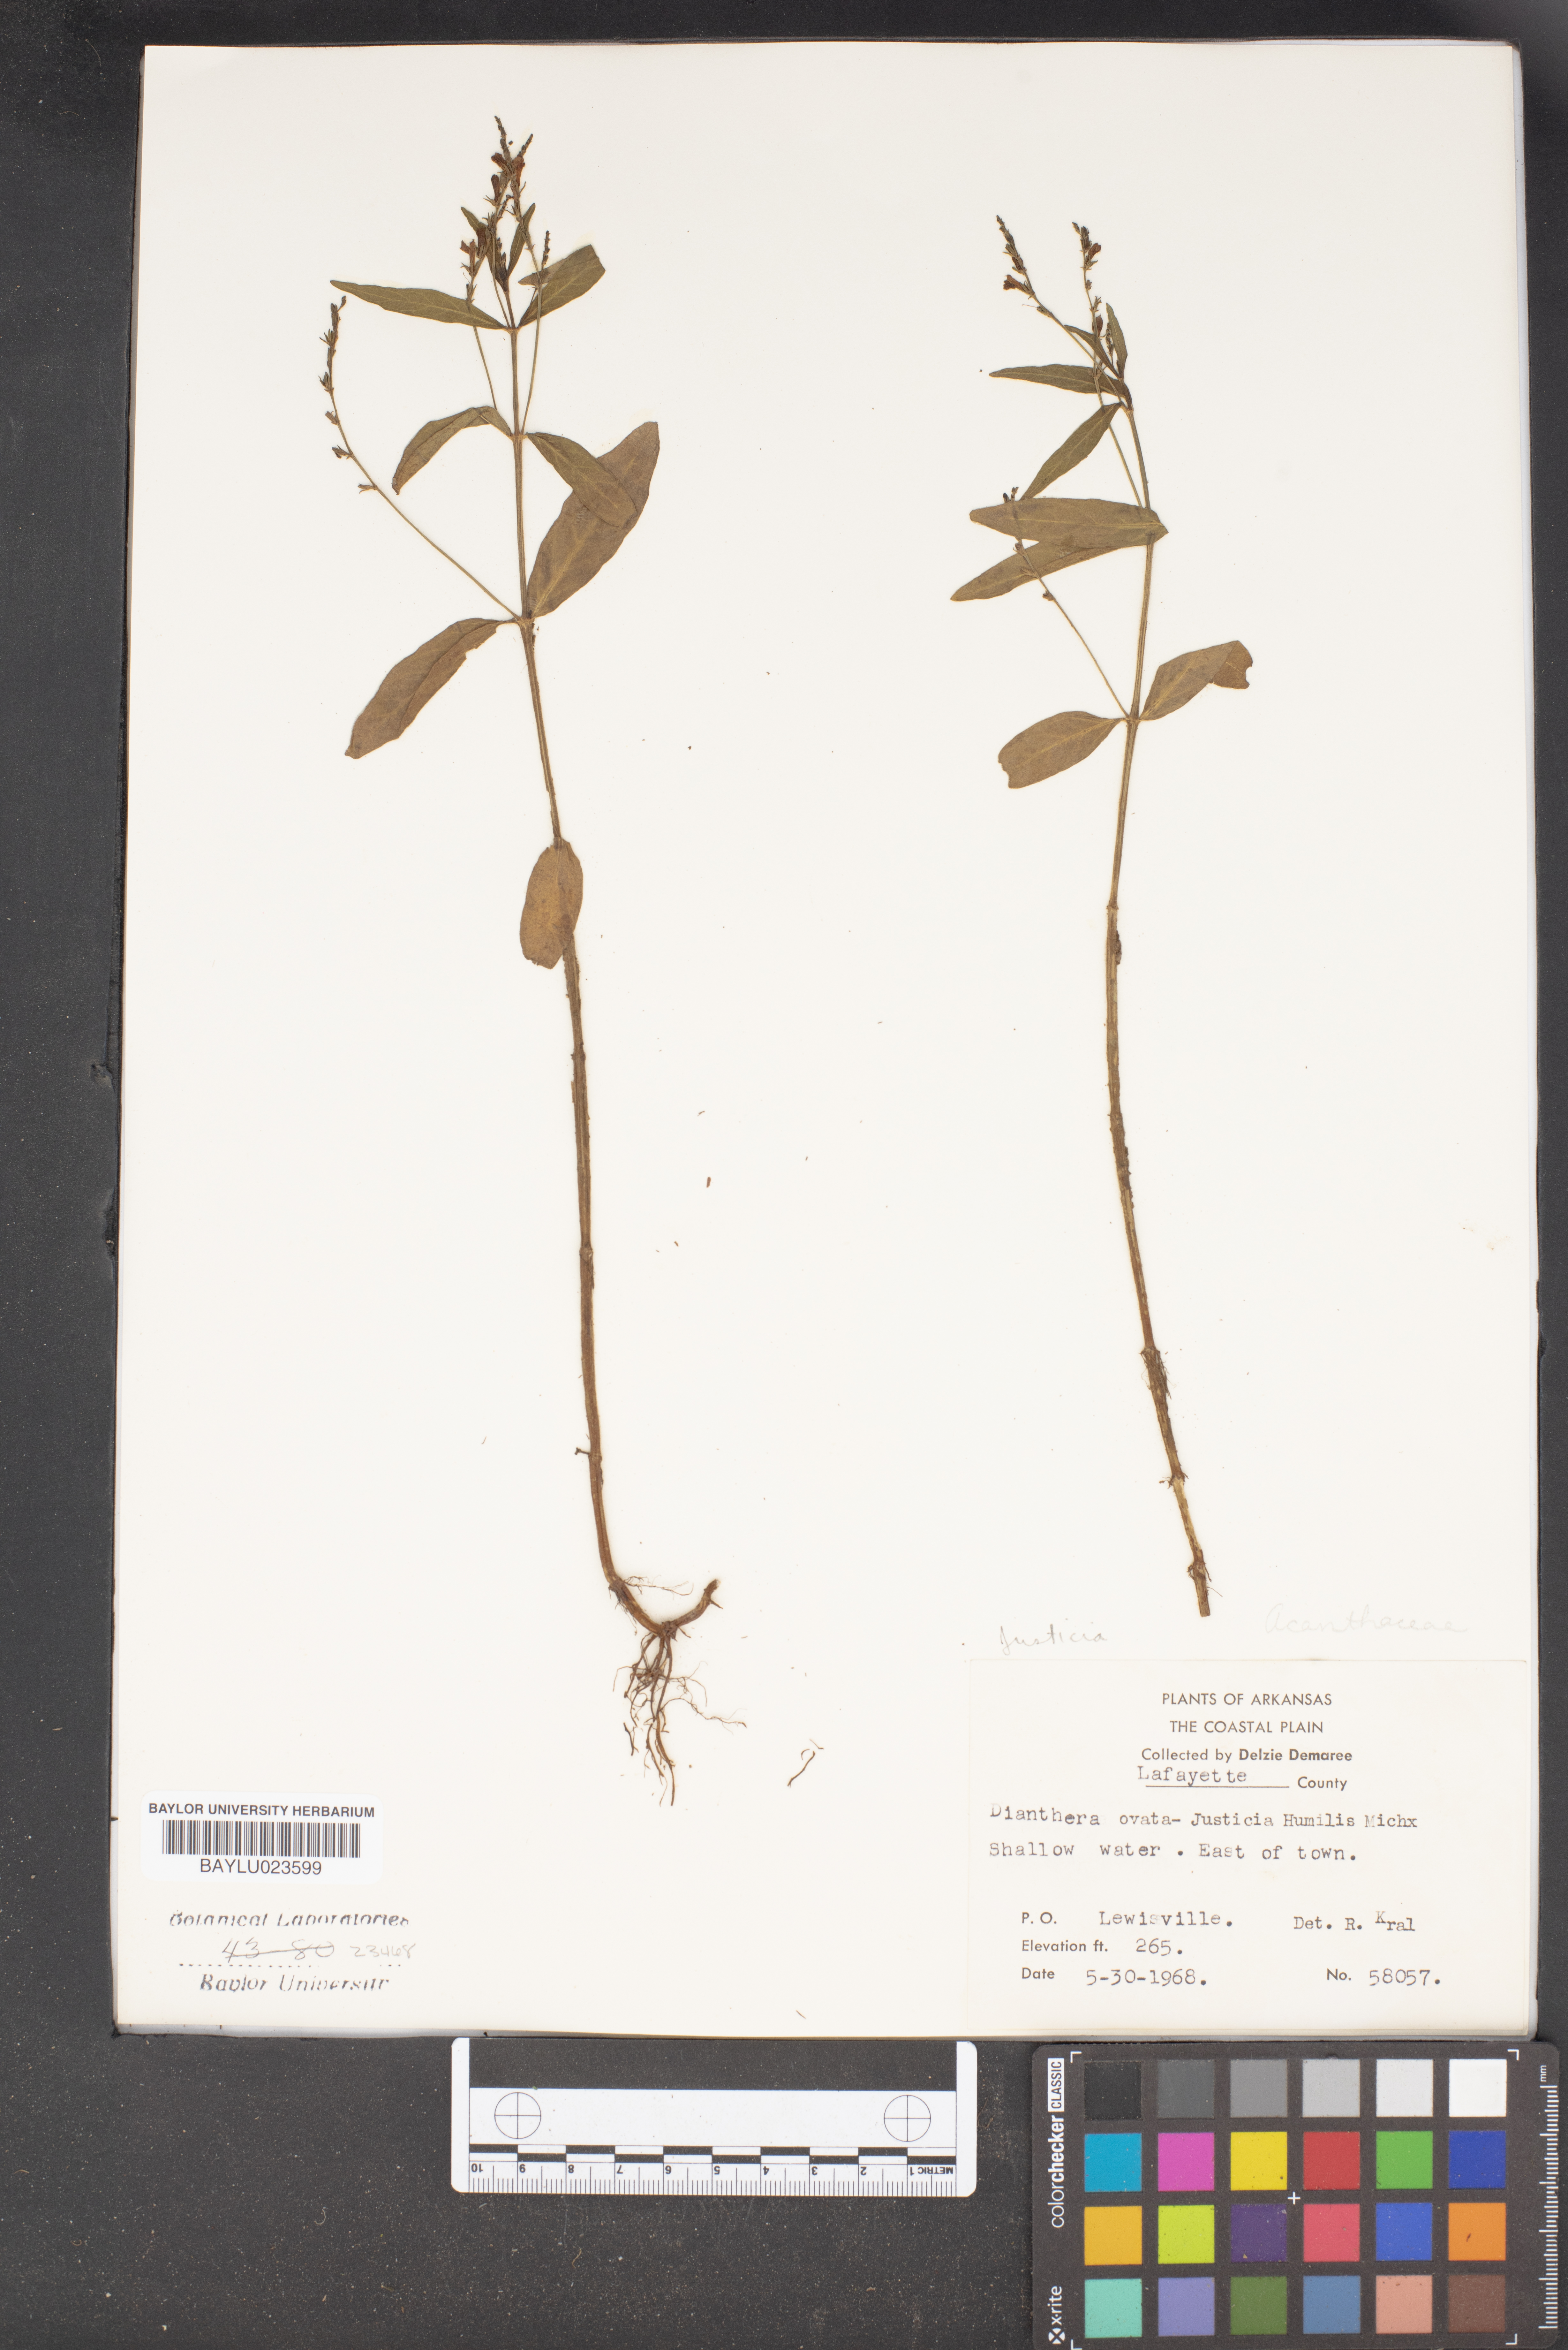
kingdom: Plantae
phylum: Tracheophyta
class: Magnoliopsida
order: Lamiales
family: Acanthaceae
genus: Dianthera
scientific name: Dianthera ovata
